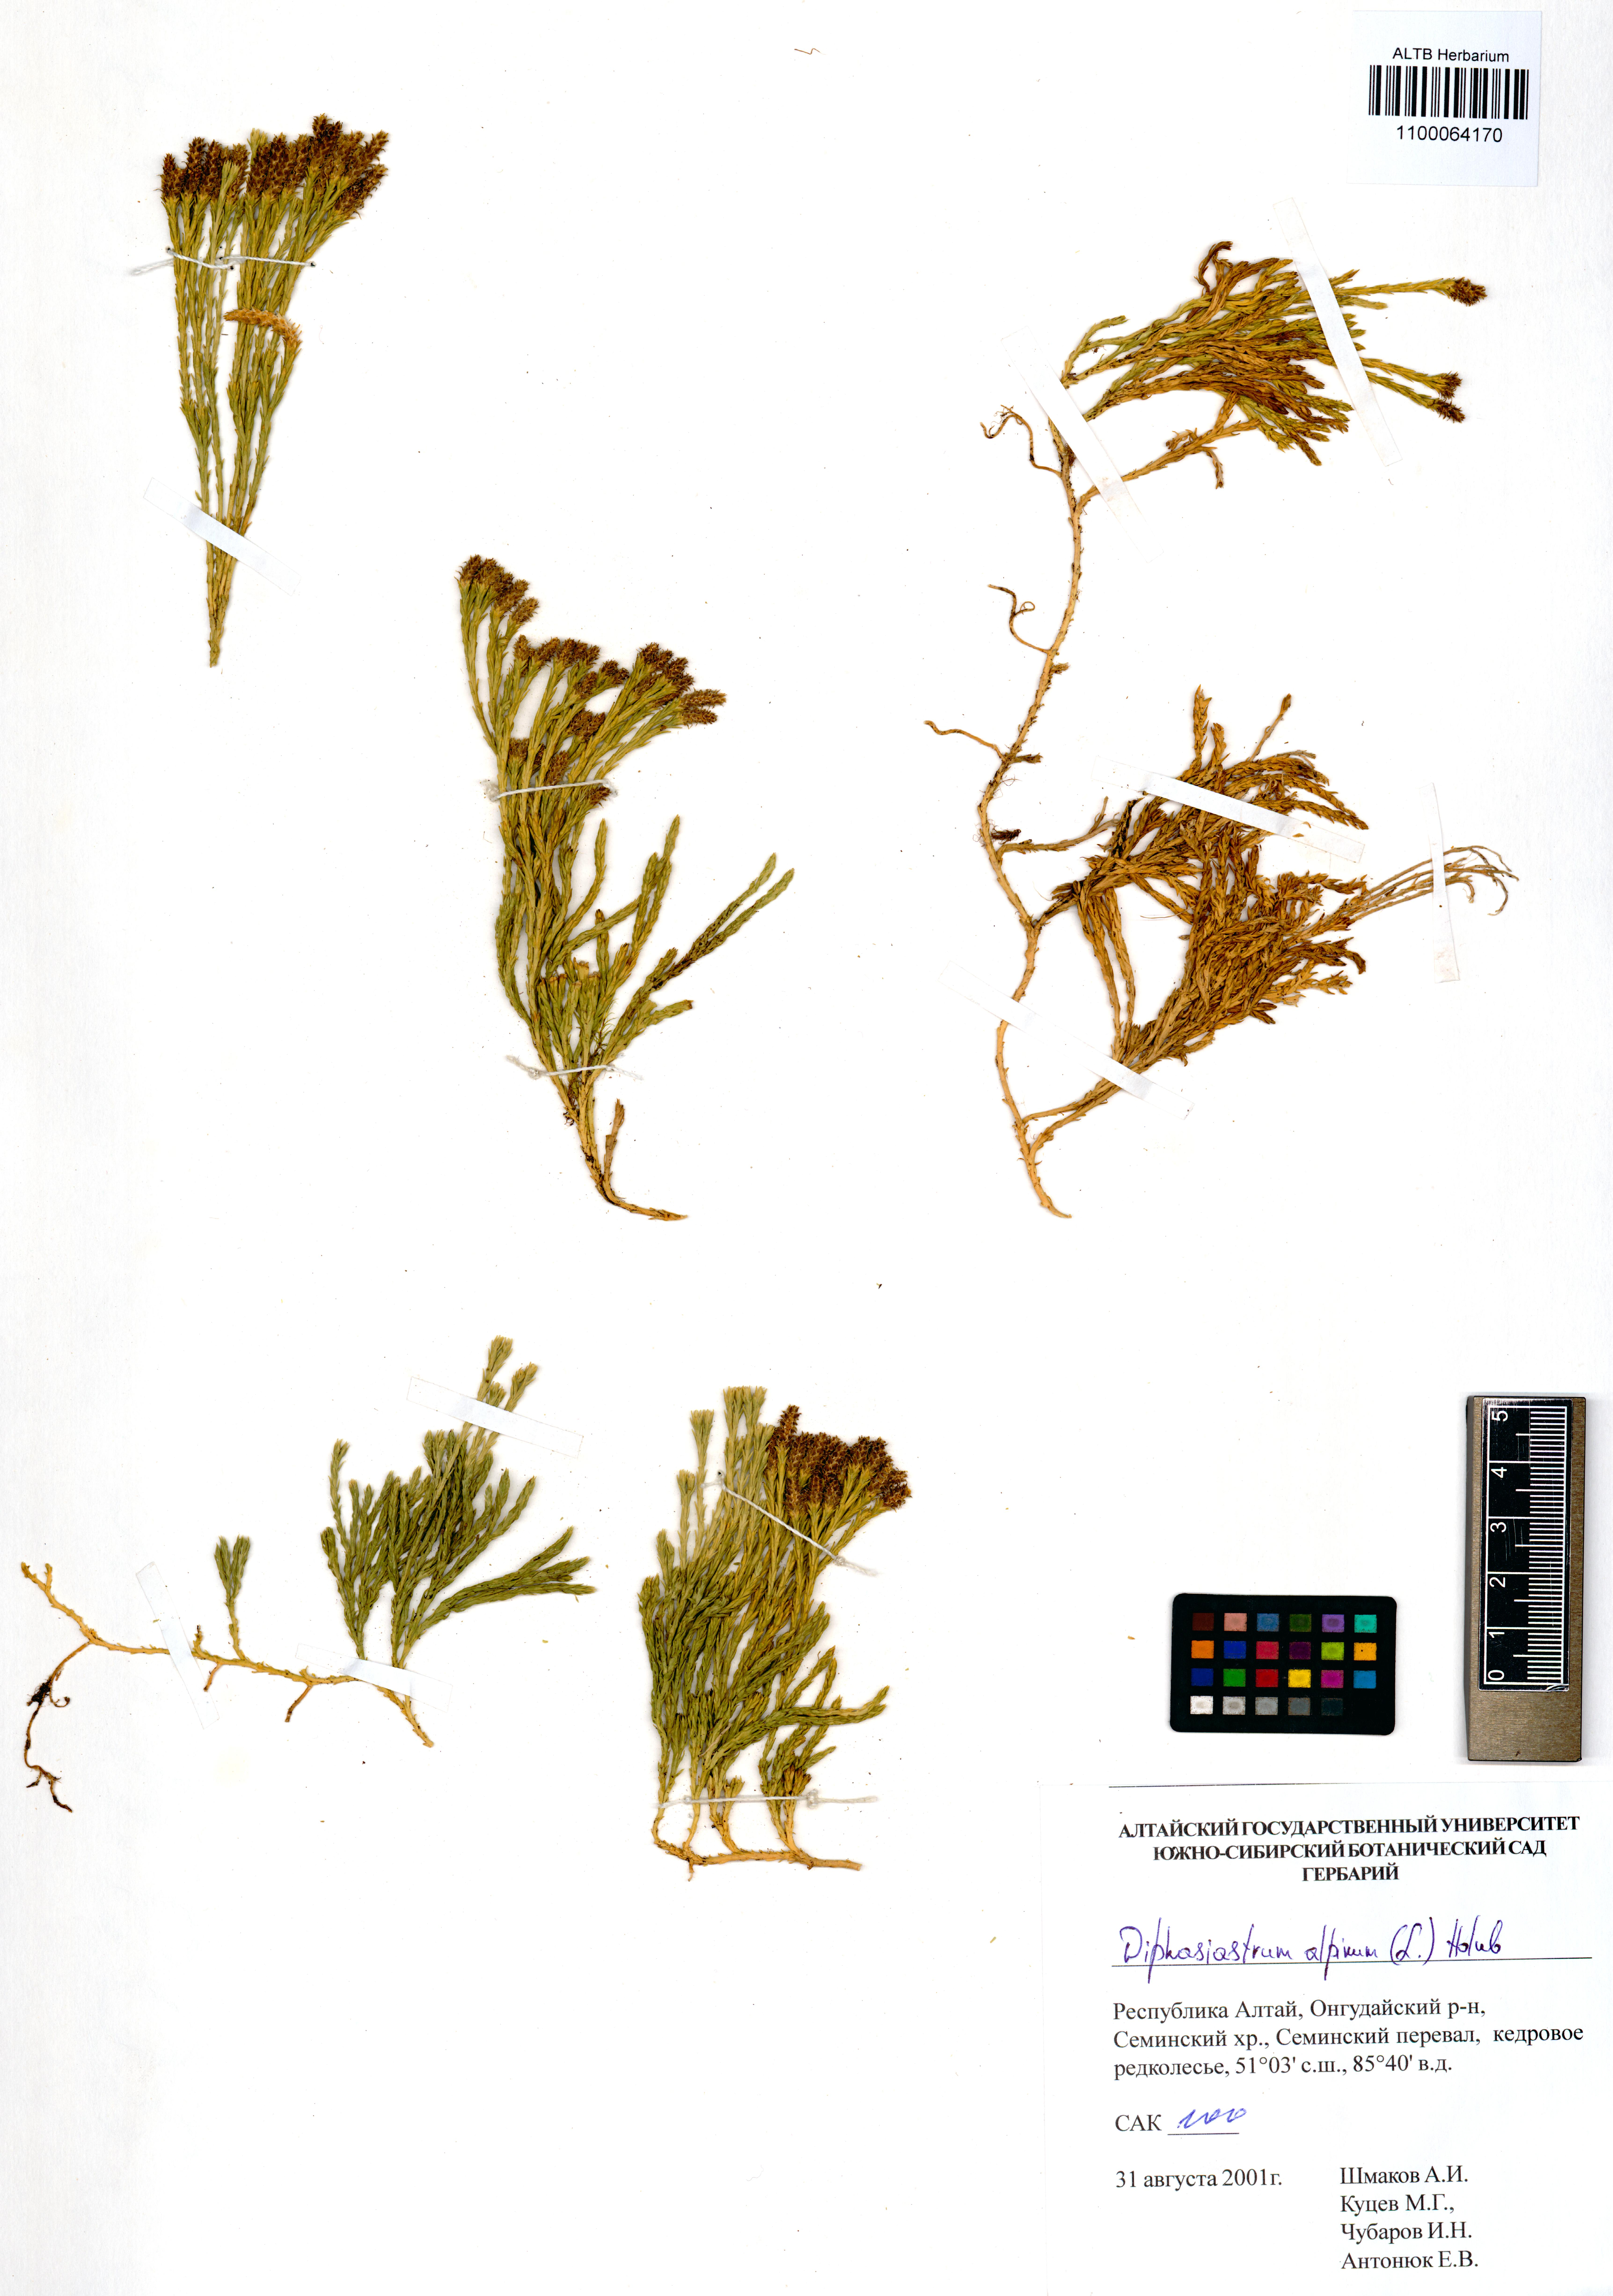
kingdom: Plantae
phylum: Tracheophyta
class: Lycopodiopsida
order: Lycopodiales
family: Lycopodiaceae
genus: Diphasiastrum
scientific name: Diphasiastrum alpinum
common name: Alpine clubmoss
